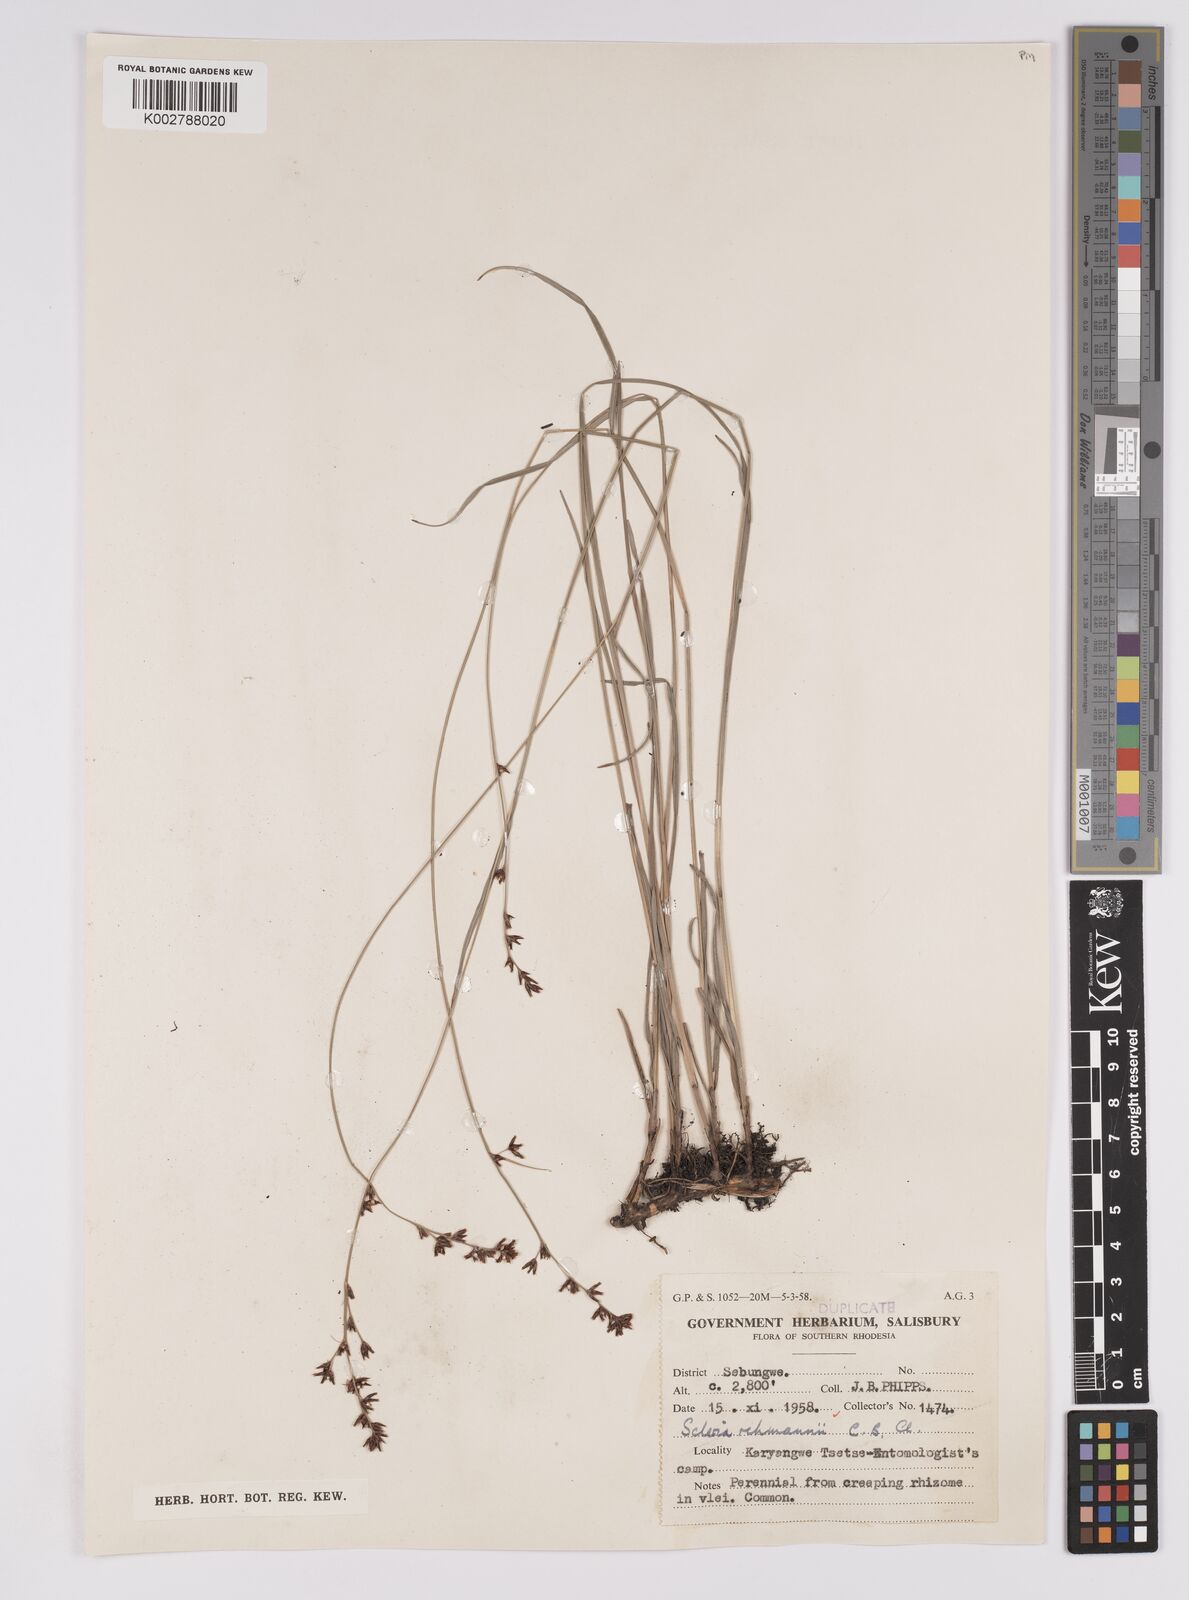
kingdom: Plantae
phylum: Tracheophyta
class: Liliopsida
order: Poales
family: Cyperaceae
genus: Scleria
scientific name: Scleria rehmannii
